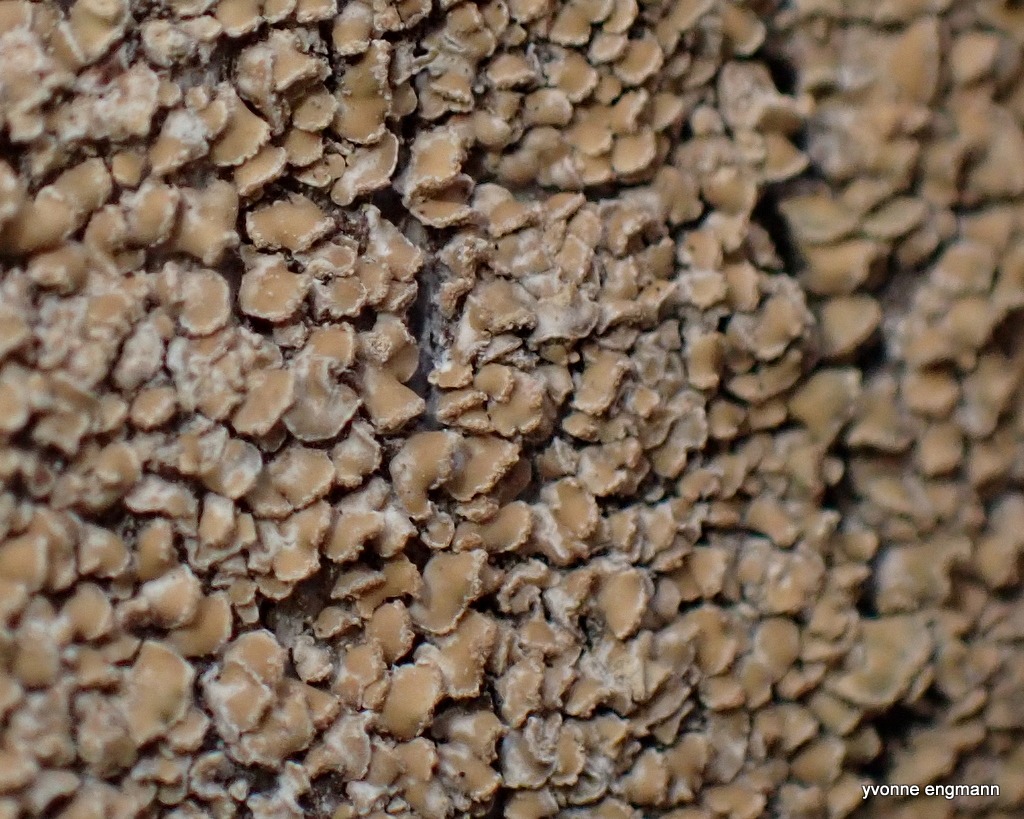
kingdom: Fungi
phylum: Ascomycota
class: Lecanoromycetes
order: Umbilicariales
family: Ophioparmaceae
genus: Hypocenomyce
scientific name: Hypocenomyce scalaris
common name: Småskællet muslinglav
